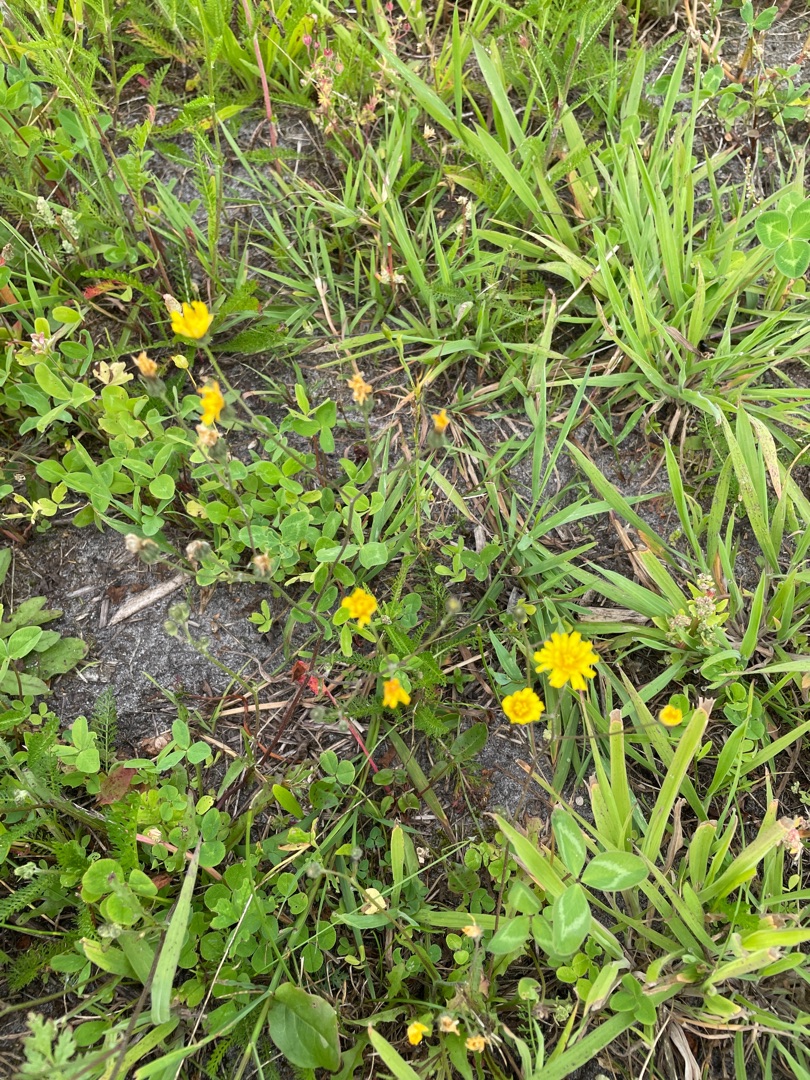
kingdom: Plantae
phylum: Tracheophyta
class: Magnoliopsida
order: Asterales
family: Asteraceae
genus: Crepis
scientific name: Crepis capillaris
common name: Grøn høgeskæg
